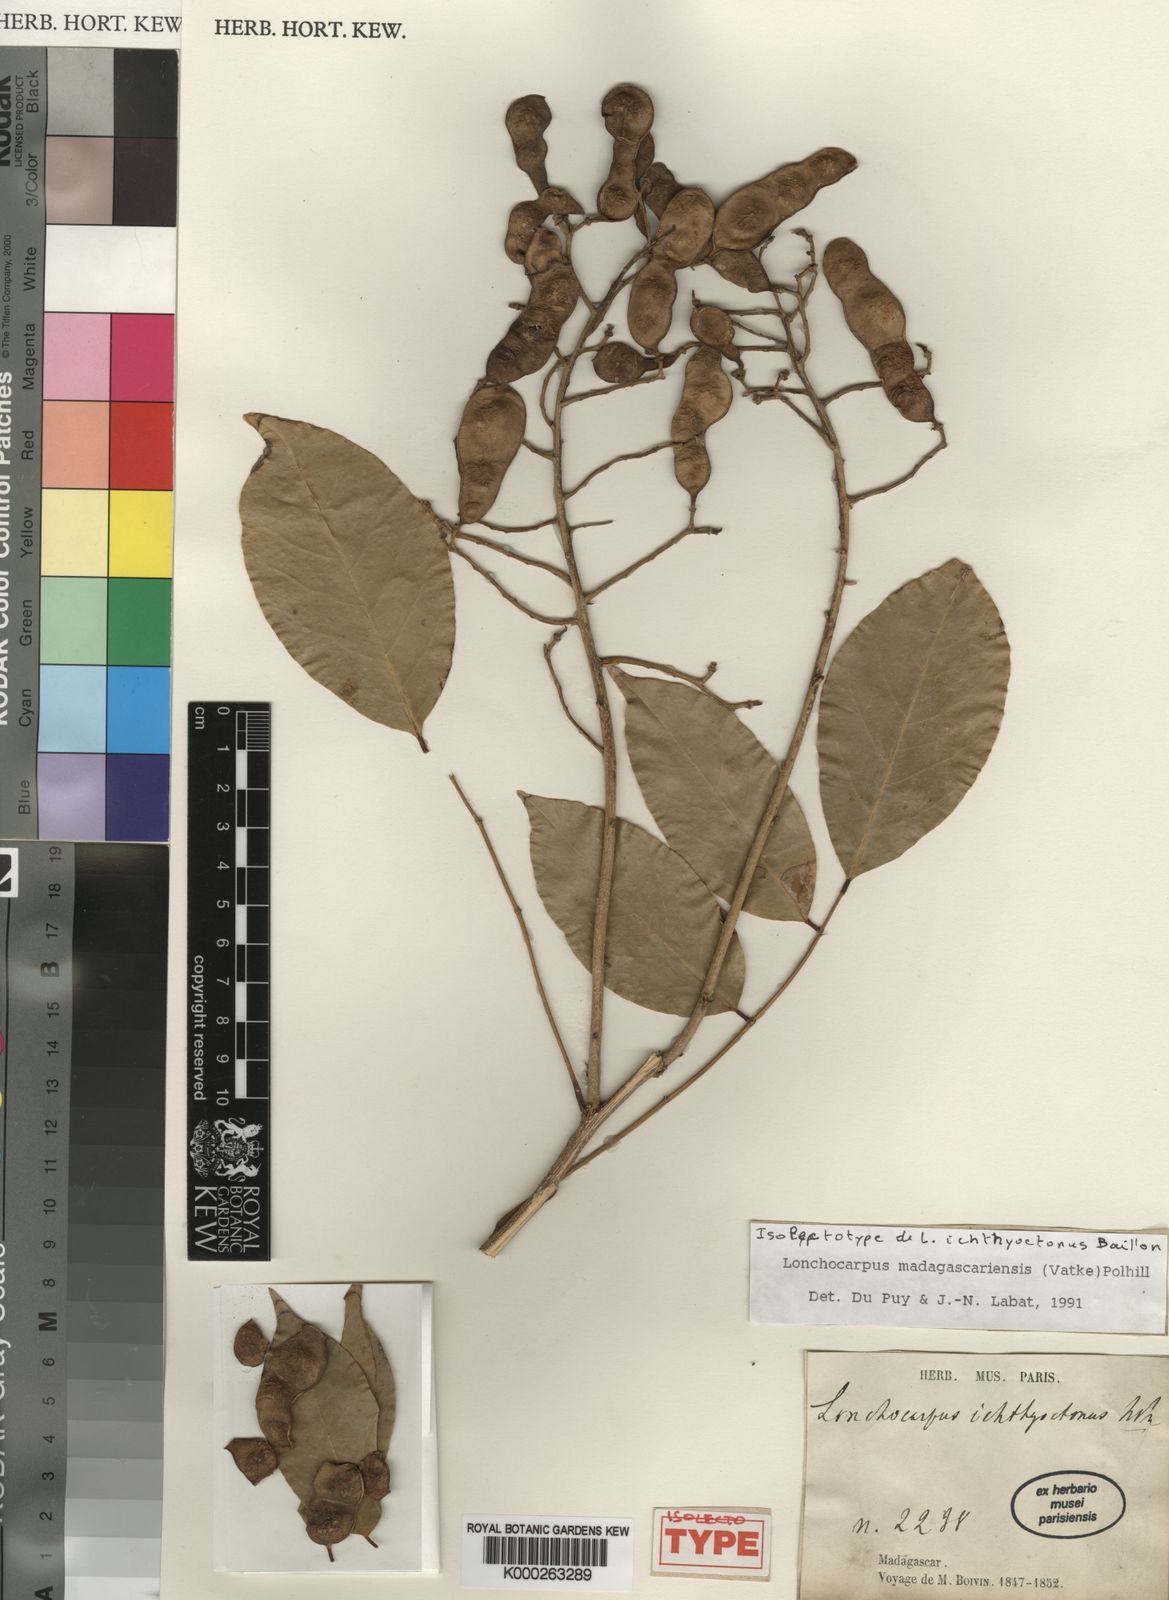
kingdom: Plantae
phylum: Tracheophyta
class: Magnoliopsida
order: Fabales
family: Fabaceae
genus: Lonchocarpus
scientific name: Lonchocarpus madagascariensis
